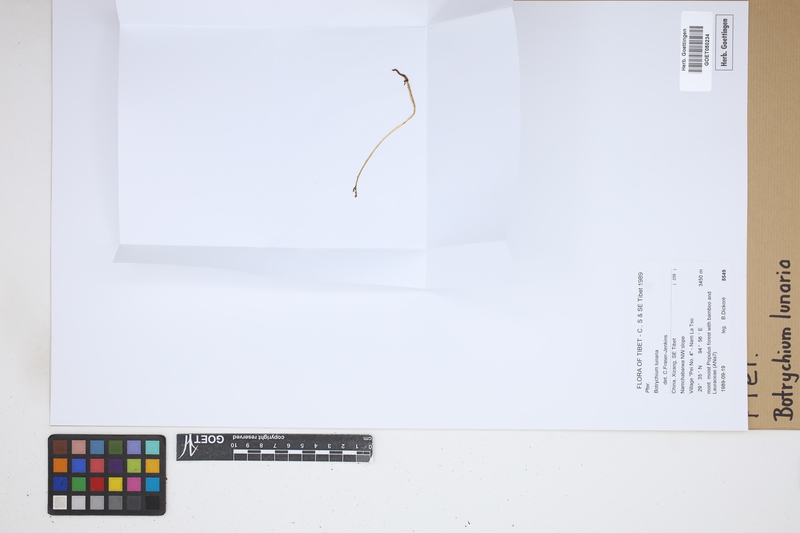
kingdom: Plantae
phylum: Tracheophyta
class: Polypodiopsida
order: Ophioglossales
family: Ophioglossaceae
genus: Botrychium
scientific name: Botrychium lunaria
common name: Moonwort
